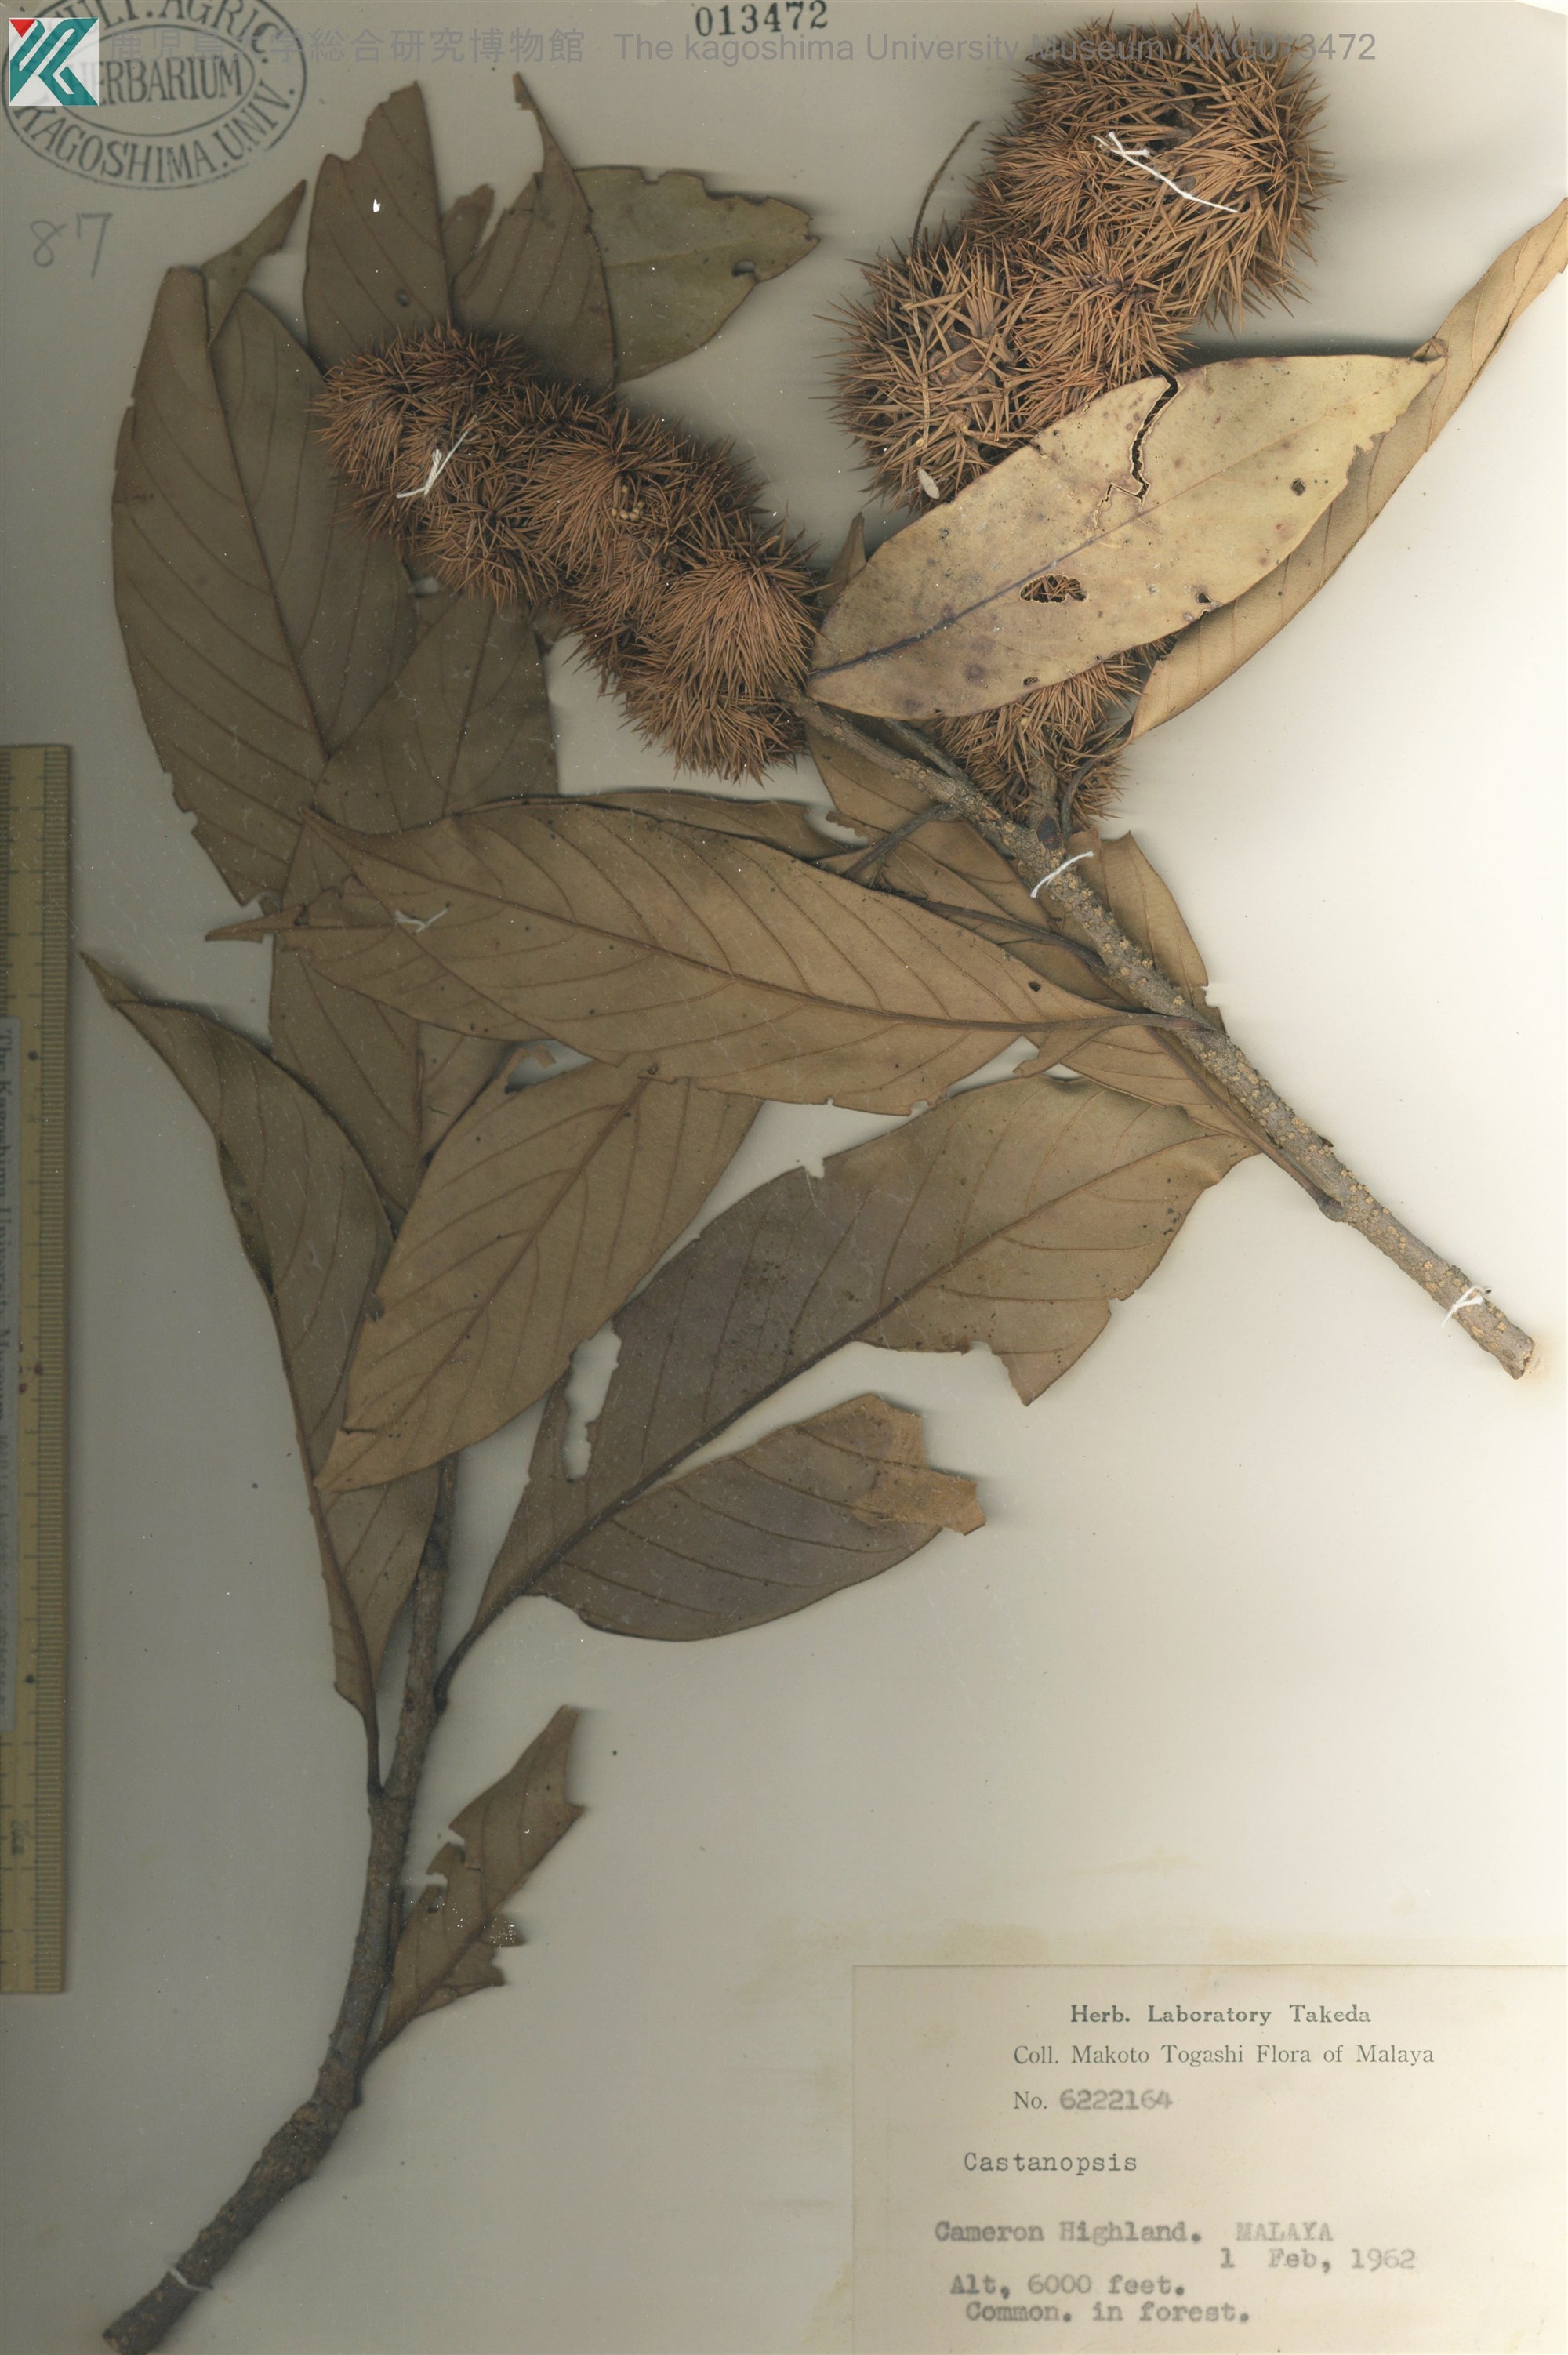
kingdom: Plantae
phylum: Tracheophyta
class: Magnoliopsida
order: Fagales
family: Fagaceae
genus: Castanopsis
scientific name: Castanopsis
